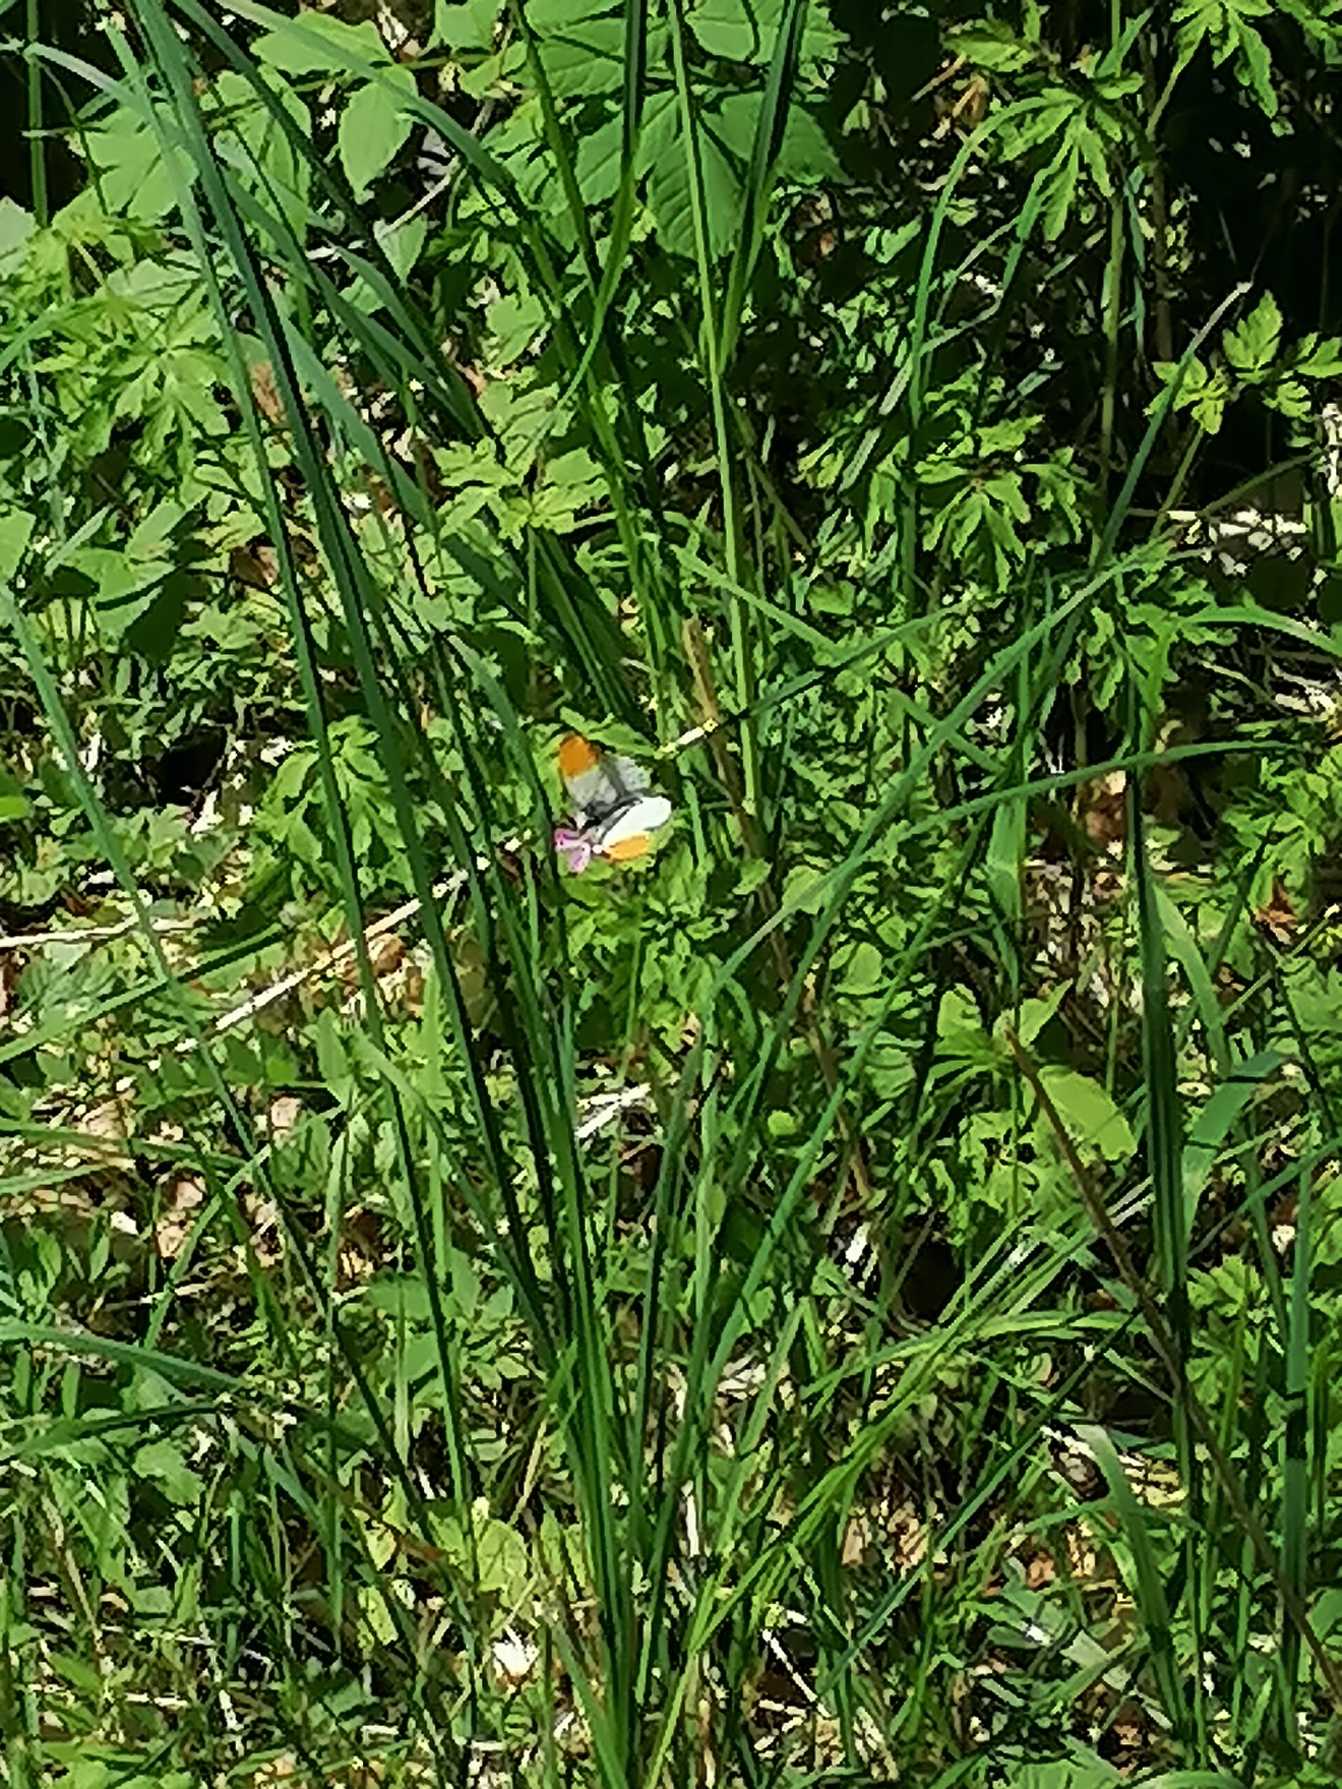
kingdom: Animalia
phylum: Arthropoda
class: Insecta
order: Lepidoptera
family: Pieridae
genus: Anthocharis
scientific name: Anthocharis cardamines
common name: Aurora
